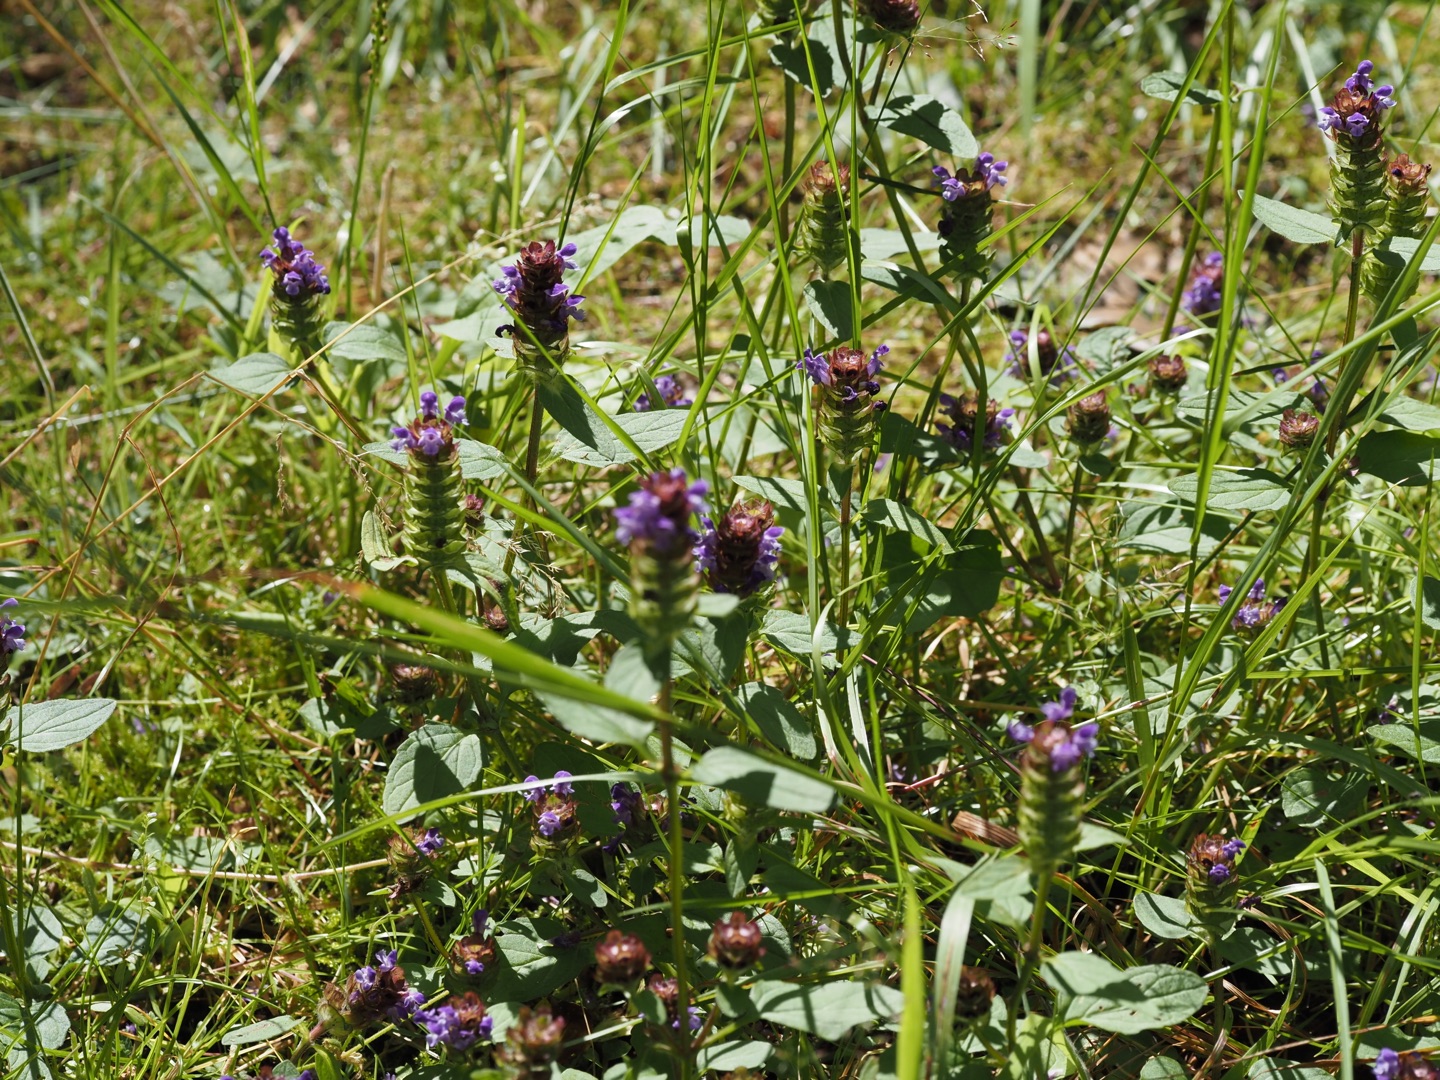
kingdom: Plantae
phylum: Tracheophyta
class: Magnoliopsida
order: Lamiales
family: Lamiaceae
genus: Prunella
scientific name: Prunella vulgaris
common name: Almindelig brunelle
